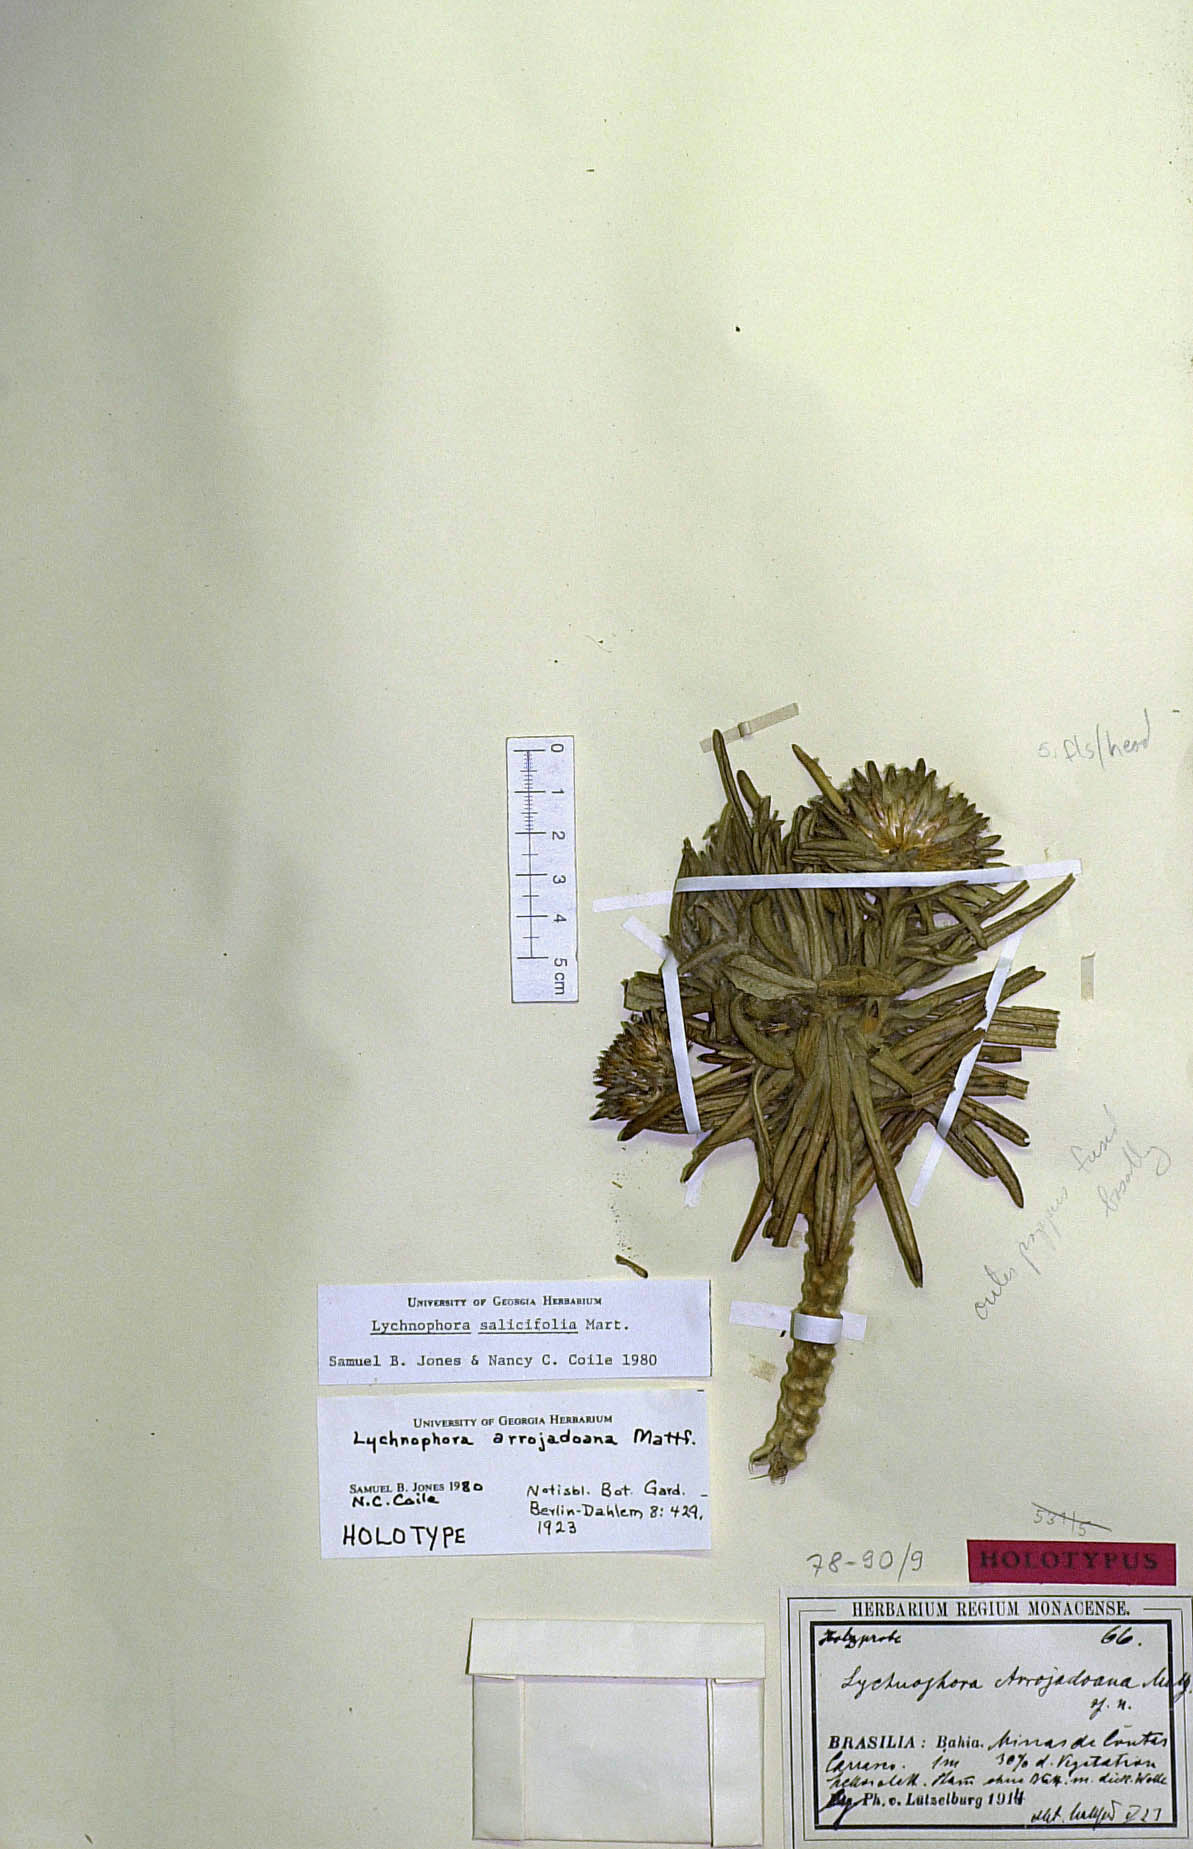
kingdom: Plantae
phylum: Tracheophyta
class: Magnoliopsida
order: Asterales
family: Asteraceae
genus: Lychnophora
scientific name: Lychnophora salicifolia
